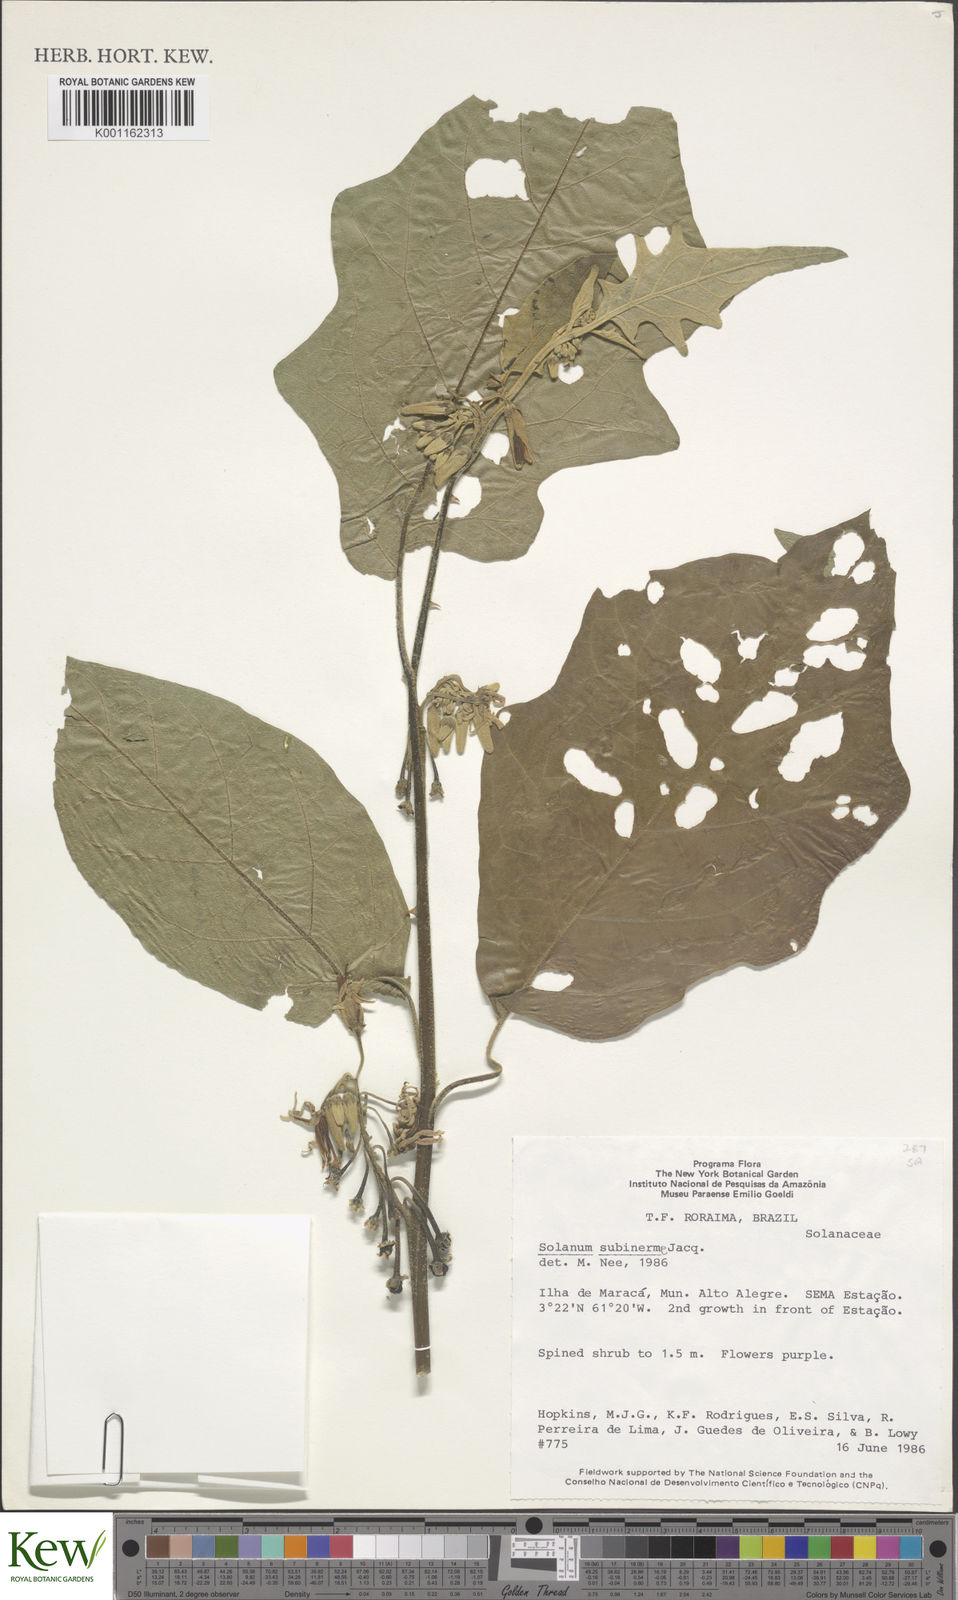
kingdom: Plantae
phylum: Tracheophyta
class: Magnoliopsida
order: Solanales
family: Solanaceae
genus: Solanum
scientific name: Solanum subinerme
